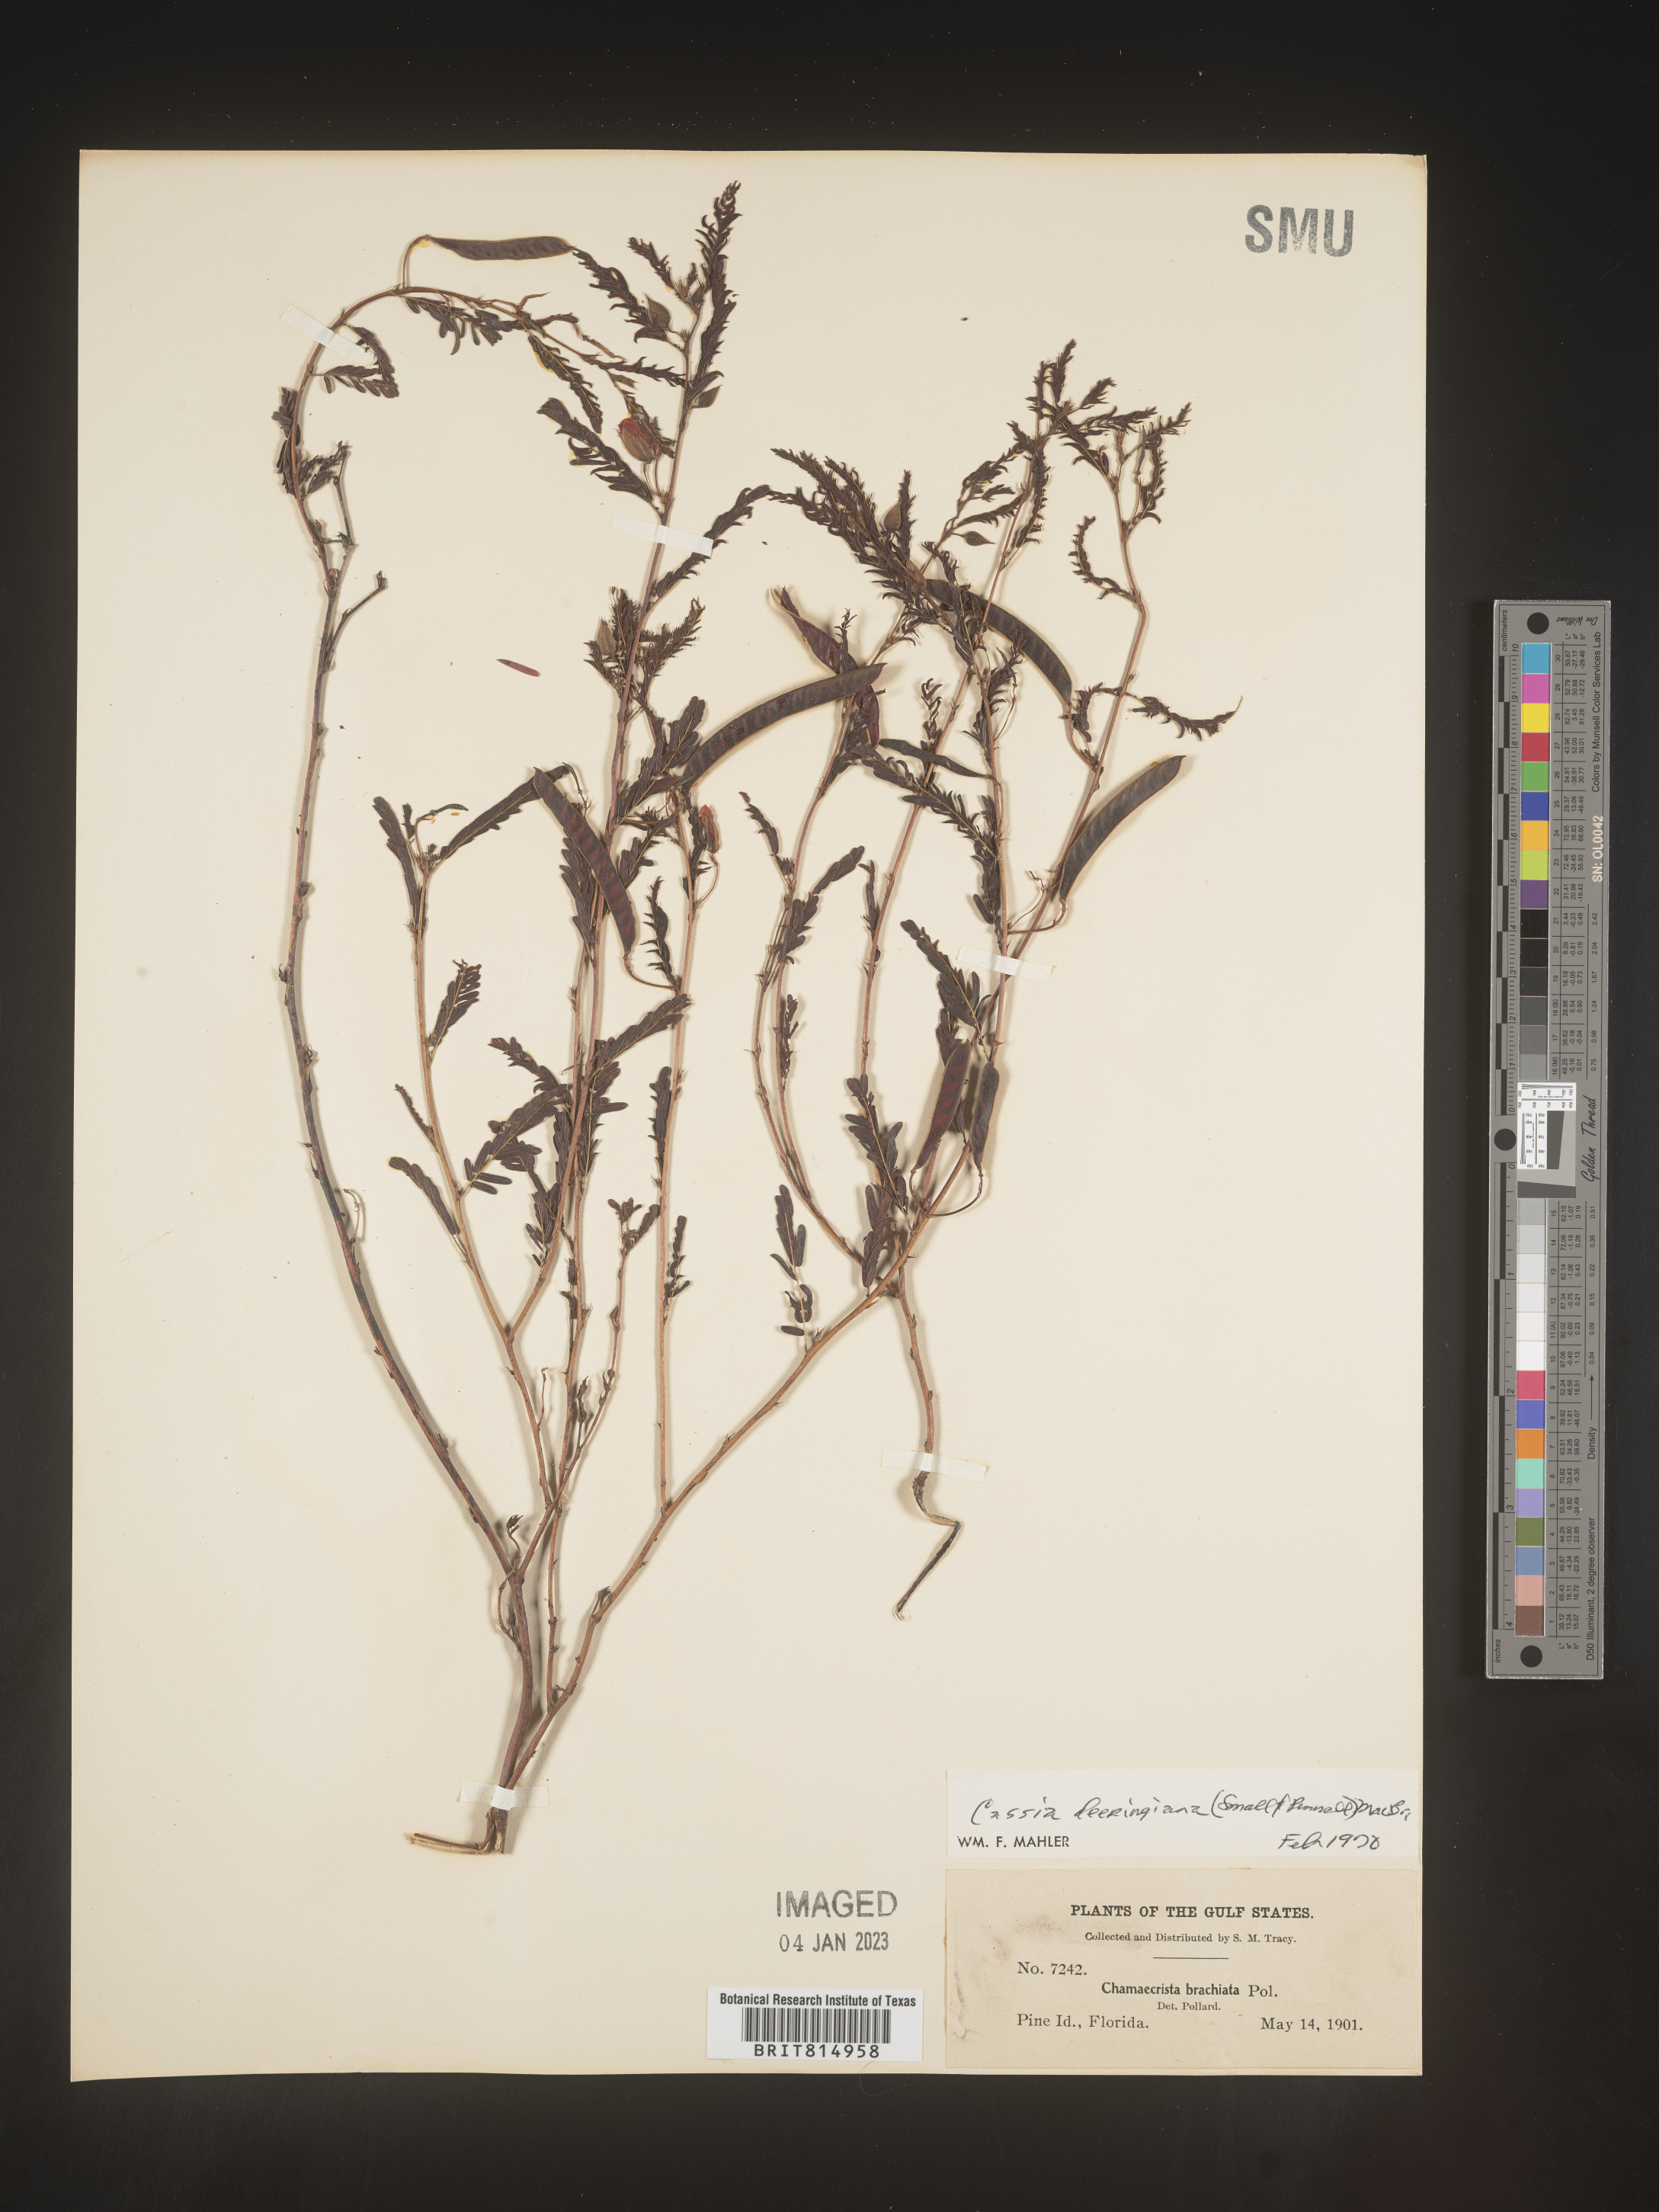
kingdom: Plantae
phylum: Tracheophyta
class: Magnoliopsida
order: Fabales
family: Fabaceae
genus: Cassia
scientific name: Cassia
